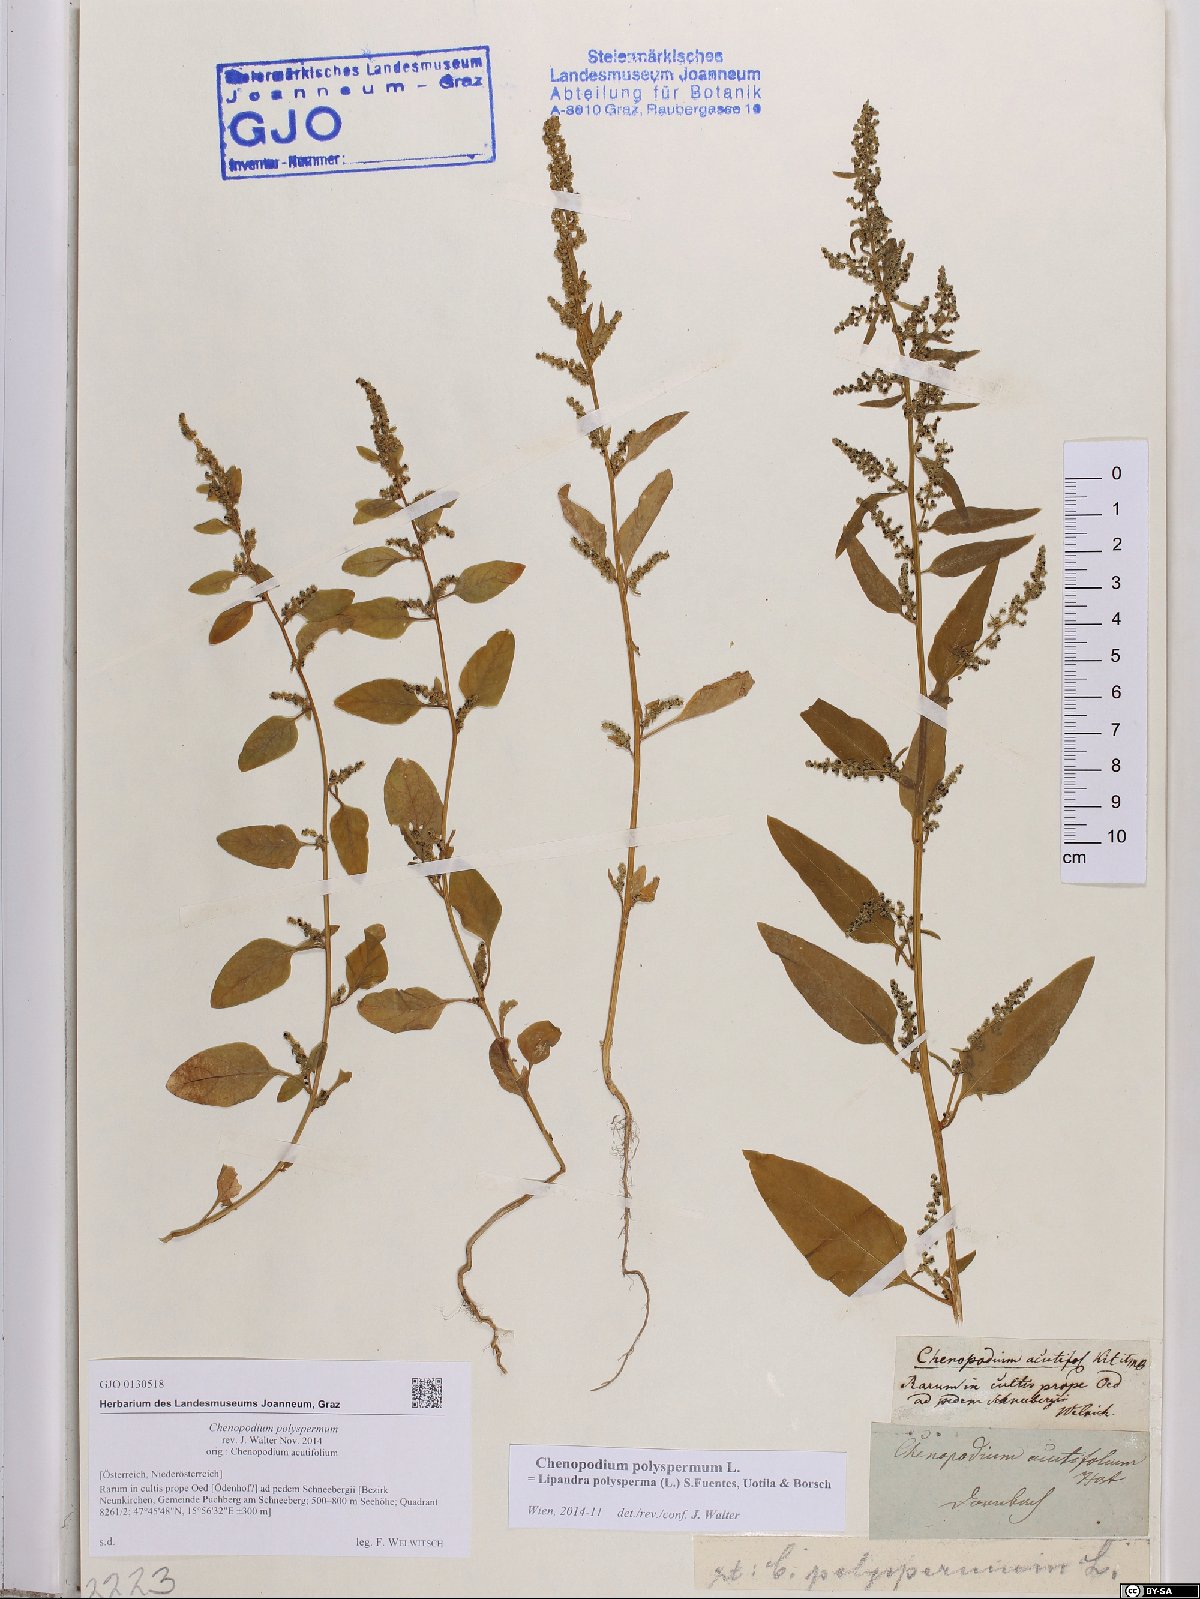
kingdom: Plantae
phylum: Tracheophyta
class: Magnoliopsida
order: Caryophyllales
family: Amaranthaceae
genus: Lipandra
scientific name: Lipandra polysperma
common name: Many-seed goosefoot
